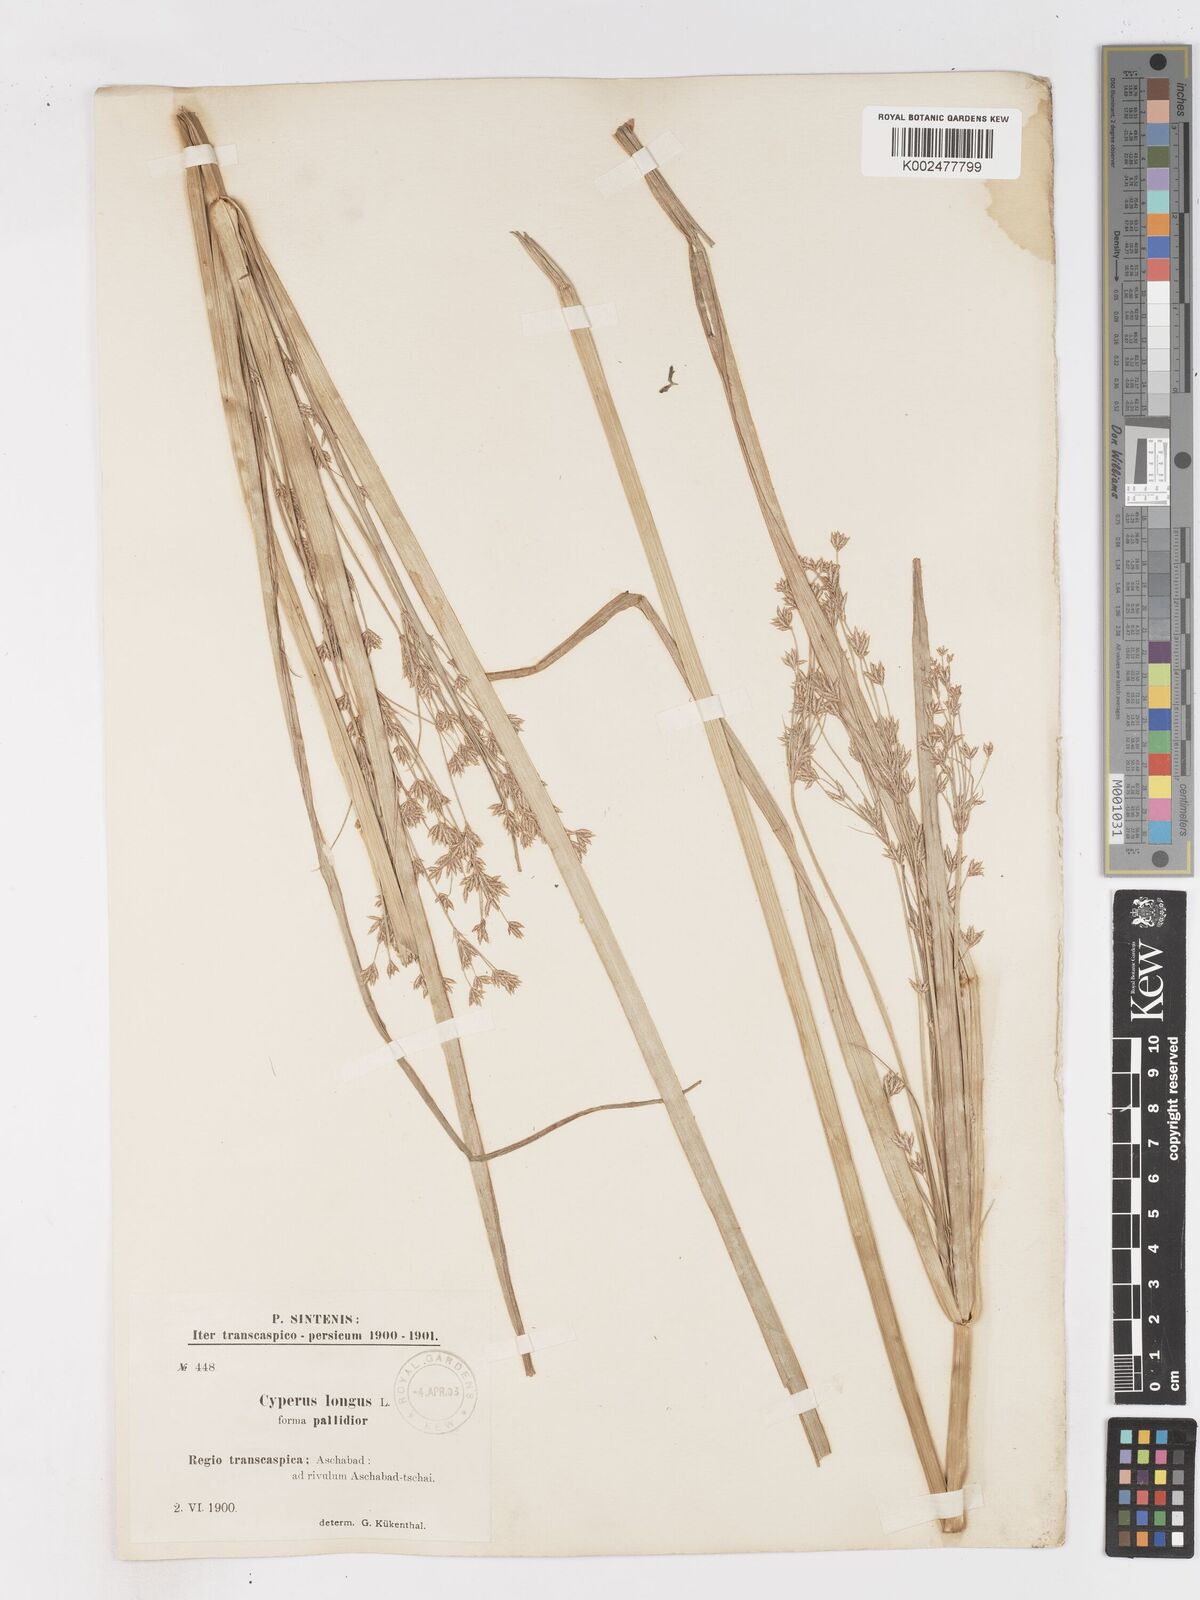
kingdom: Plantae
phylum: Tracheophyta
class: Liliopsida
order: Poales
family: Cyperaceae
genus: Cyperus
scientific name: Cyperus longus
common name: Galingale
